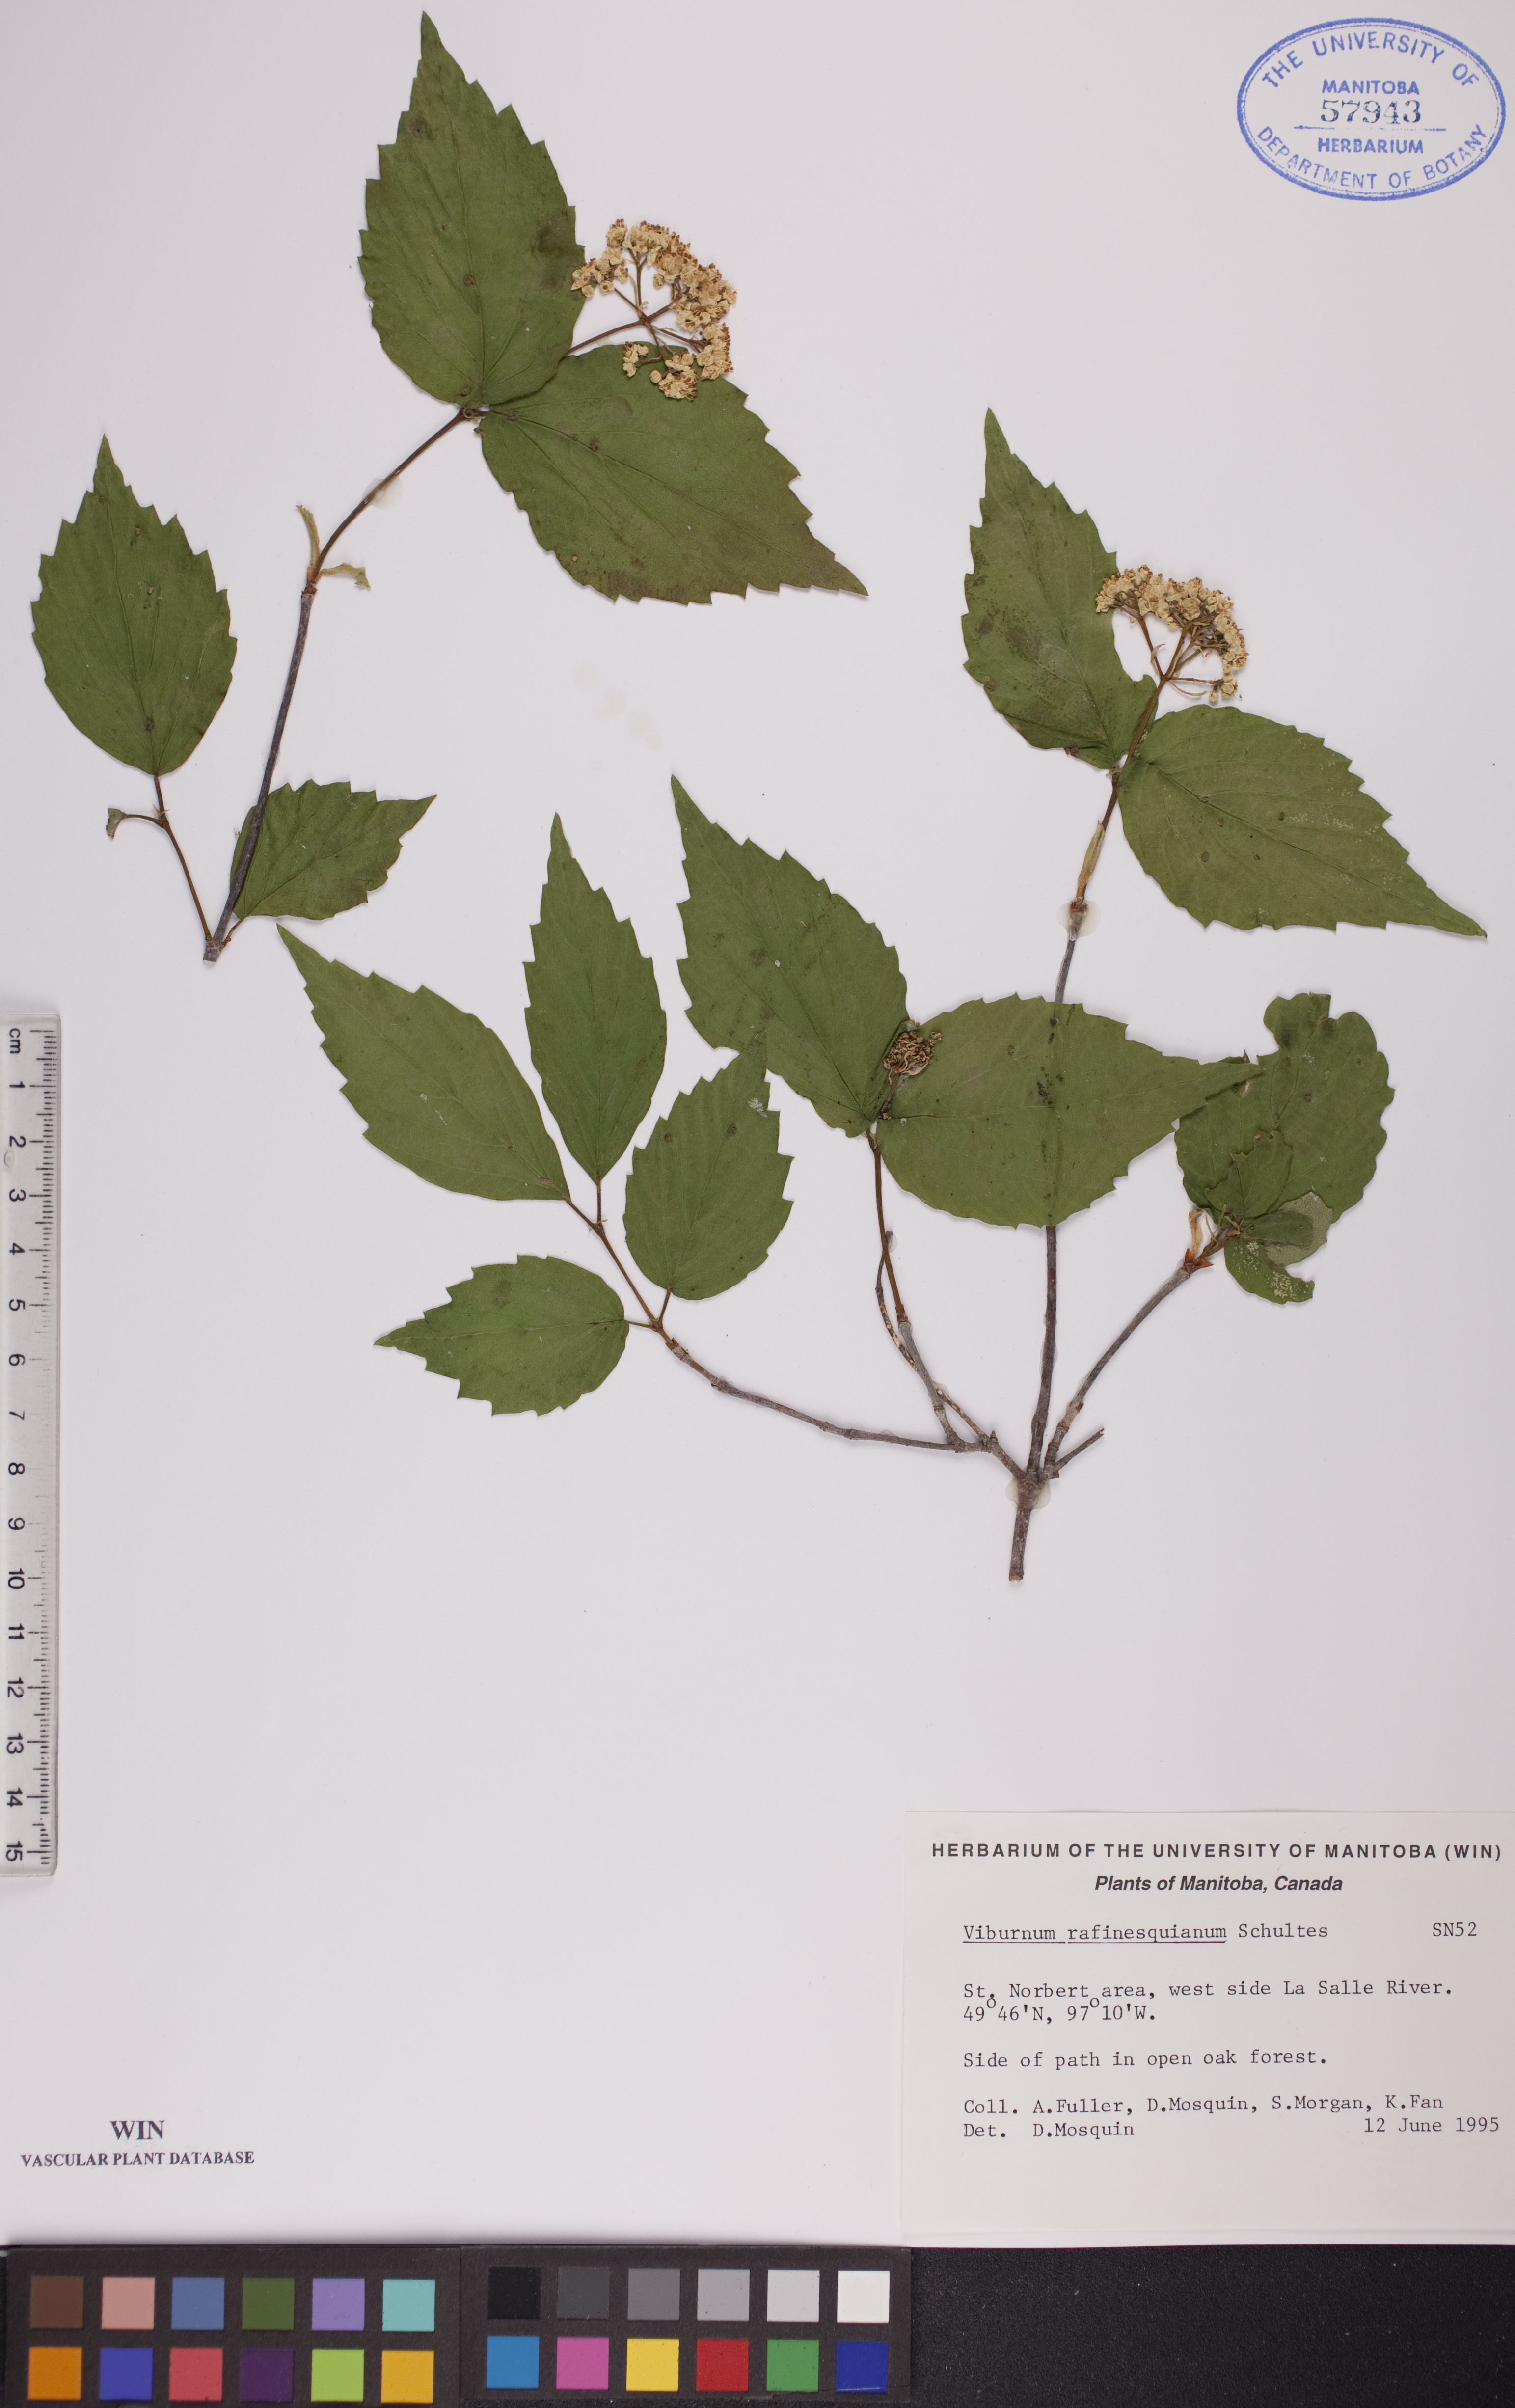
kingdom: Plantae
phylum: Tracheophyta
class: Magnoliopsida
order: Dipsacales
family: Viburnaceae
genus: Viburnum
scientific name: Viburnum rafinesquianum
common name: Downy arrow-wood
